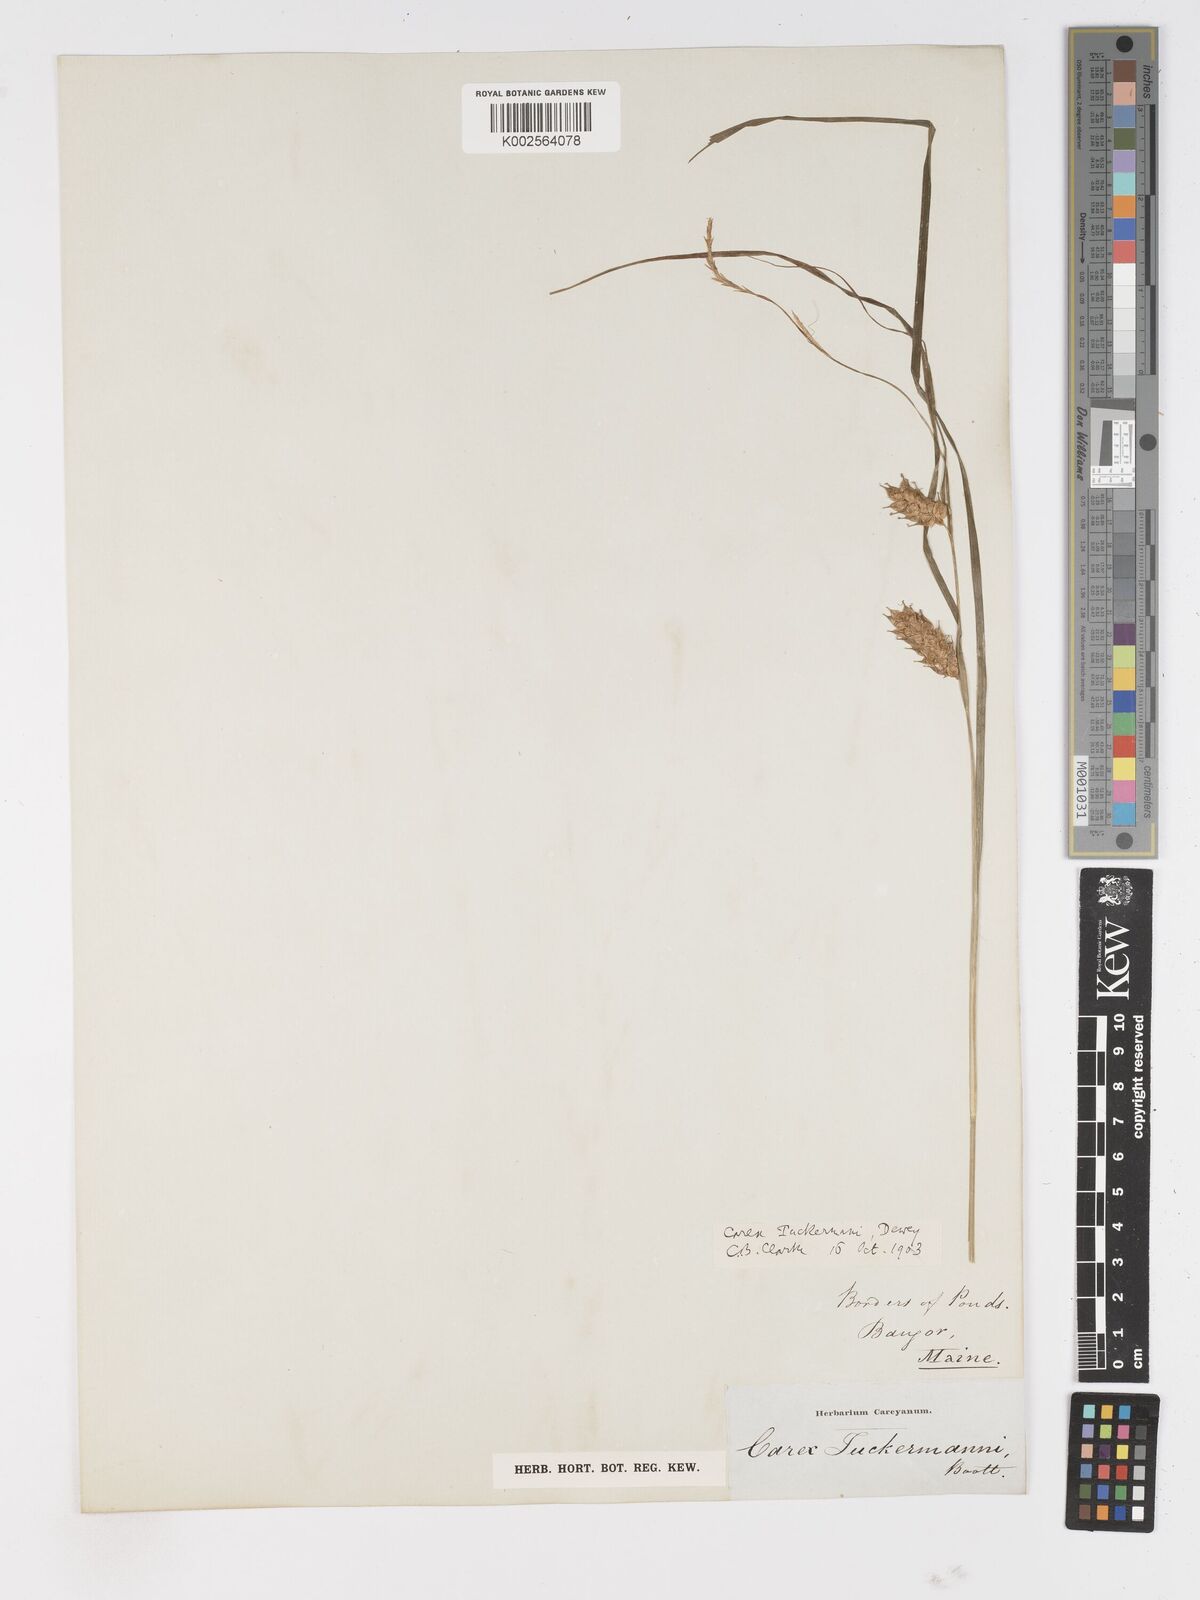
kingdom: Plantae
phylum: Tracheophyta
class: Liliopsida
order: Poales
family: Cyperaceae
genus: Carex
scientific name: Carex tuckermanii
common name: Tuckerman's sedge
